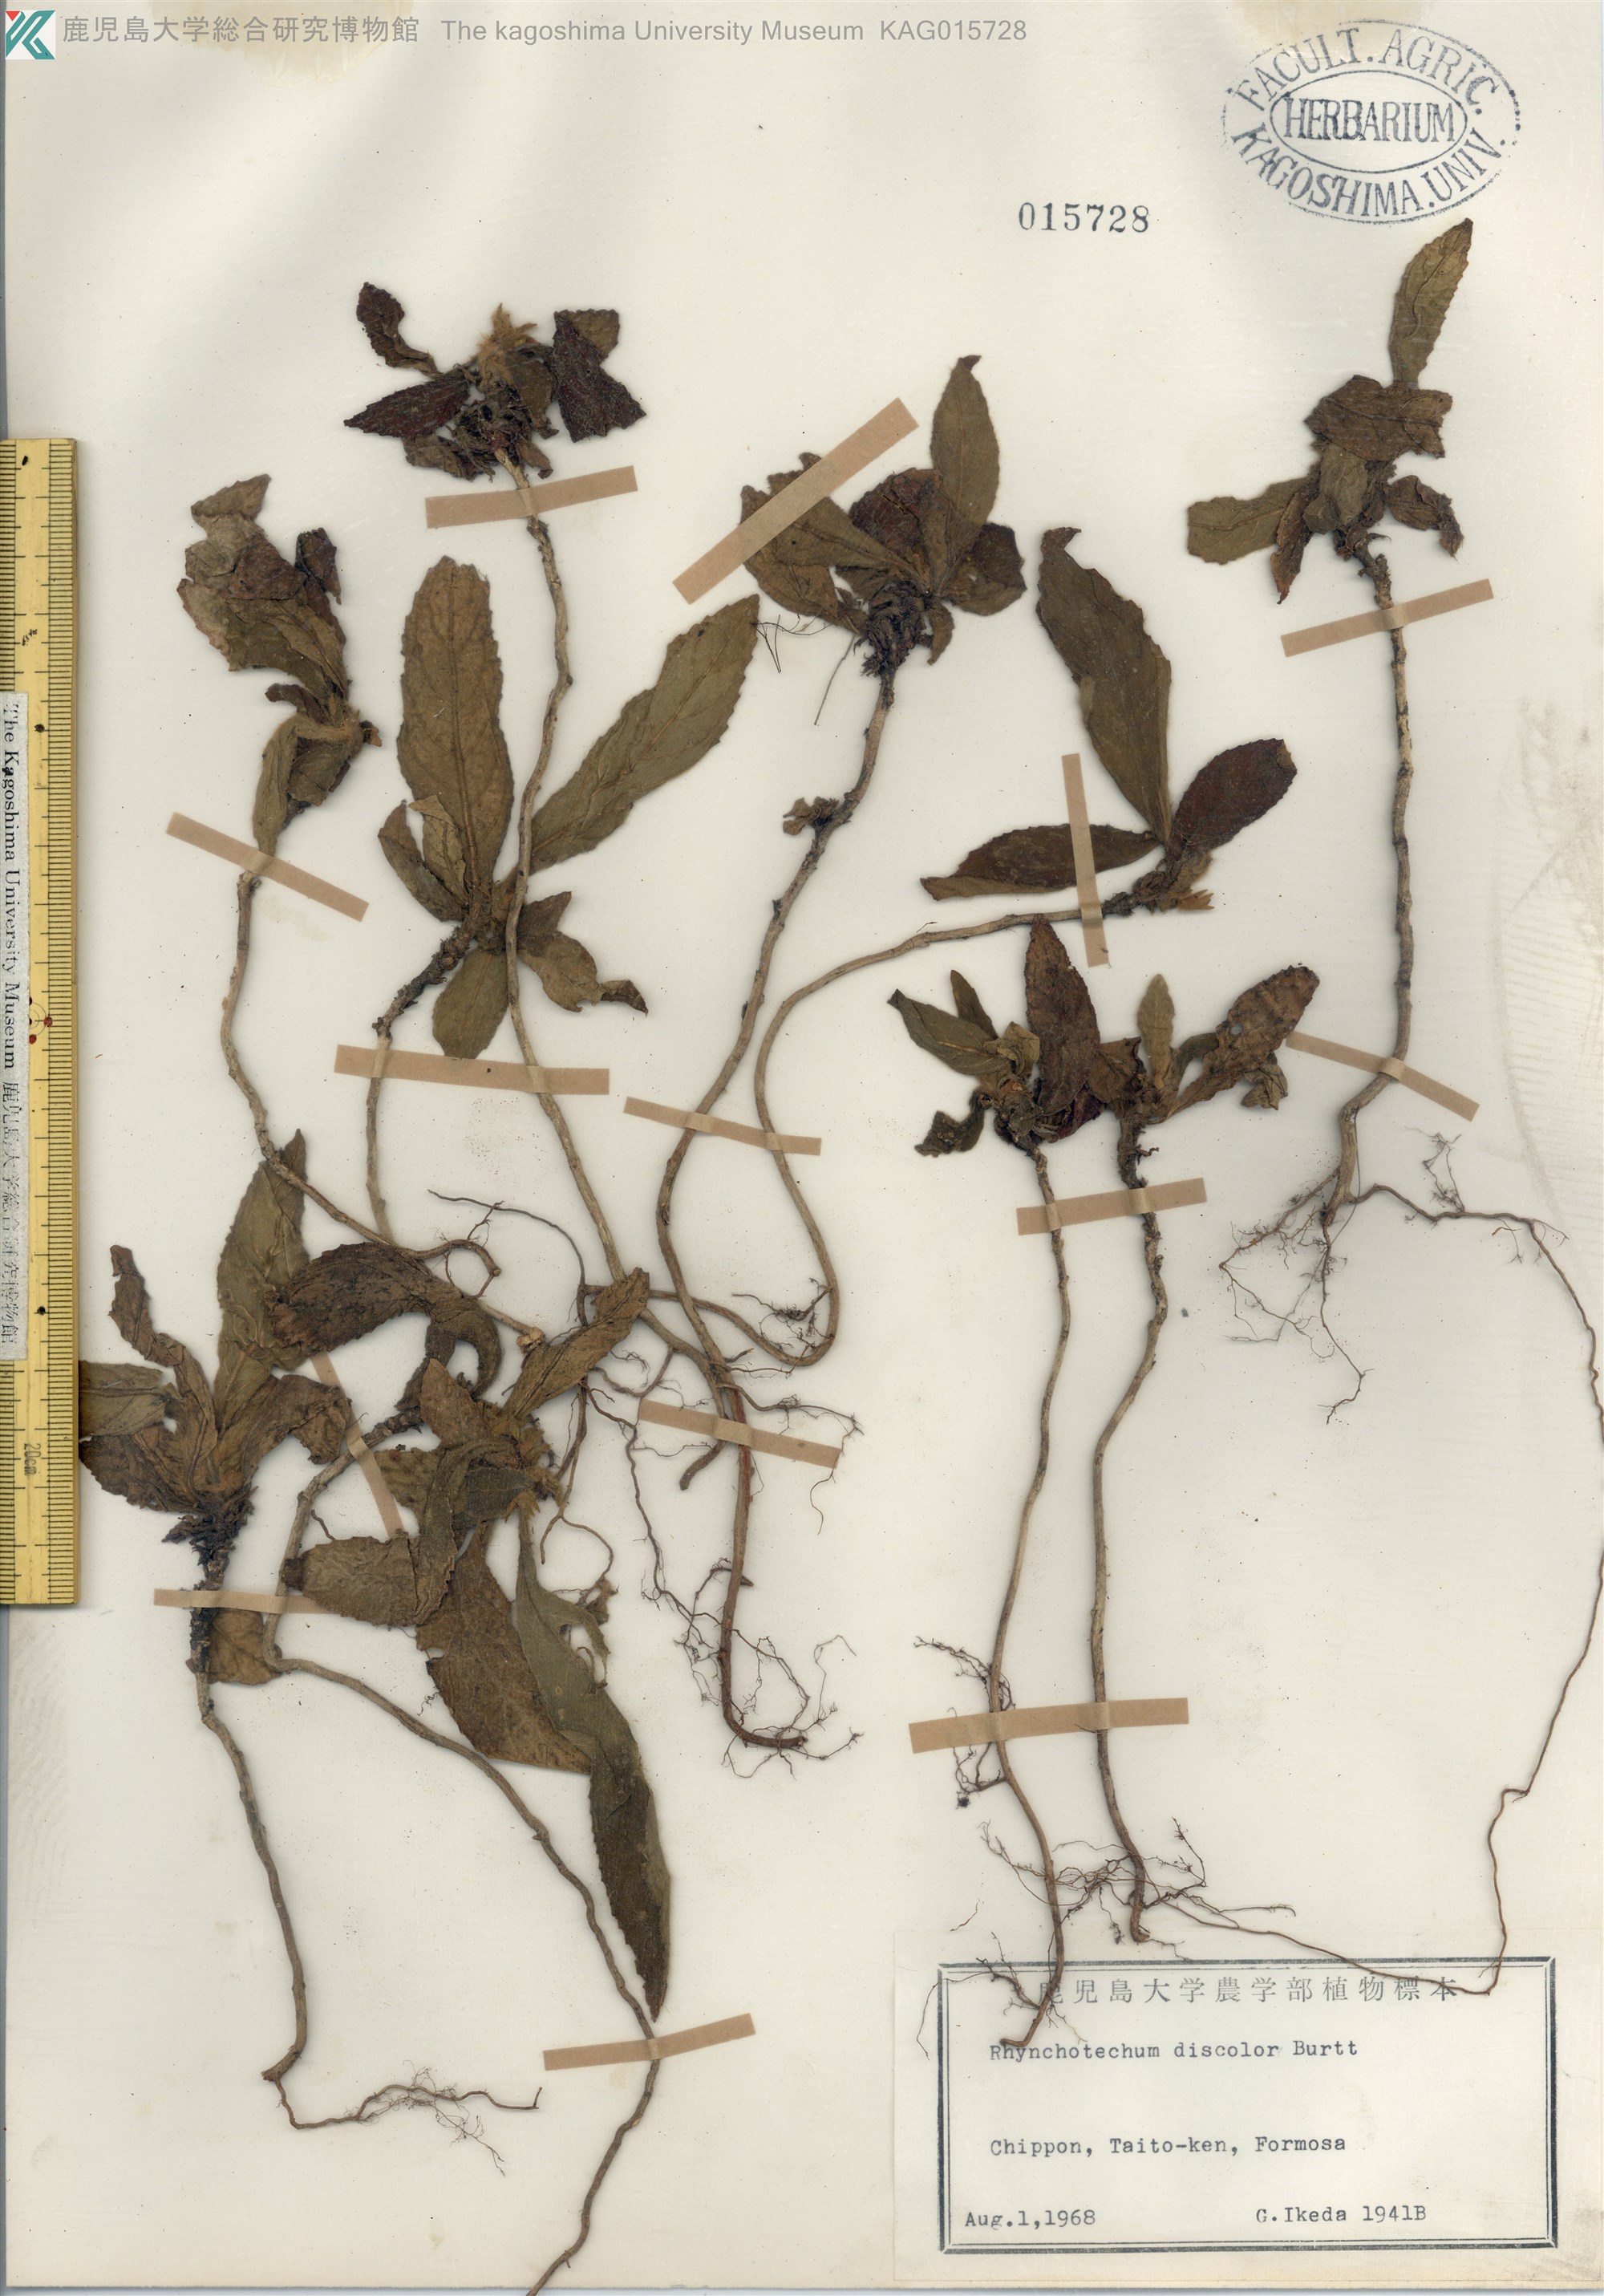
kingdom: Plantae
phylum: Tracheophyta
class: Magnoliopsida
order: Lamiales
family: Gesneriaceae
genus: Rhynchotechum
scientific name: Rhynchotechum discolor
